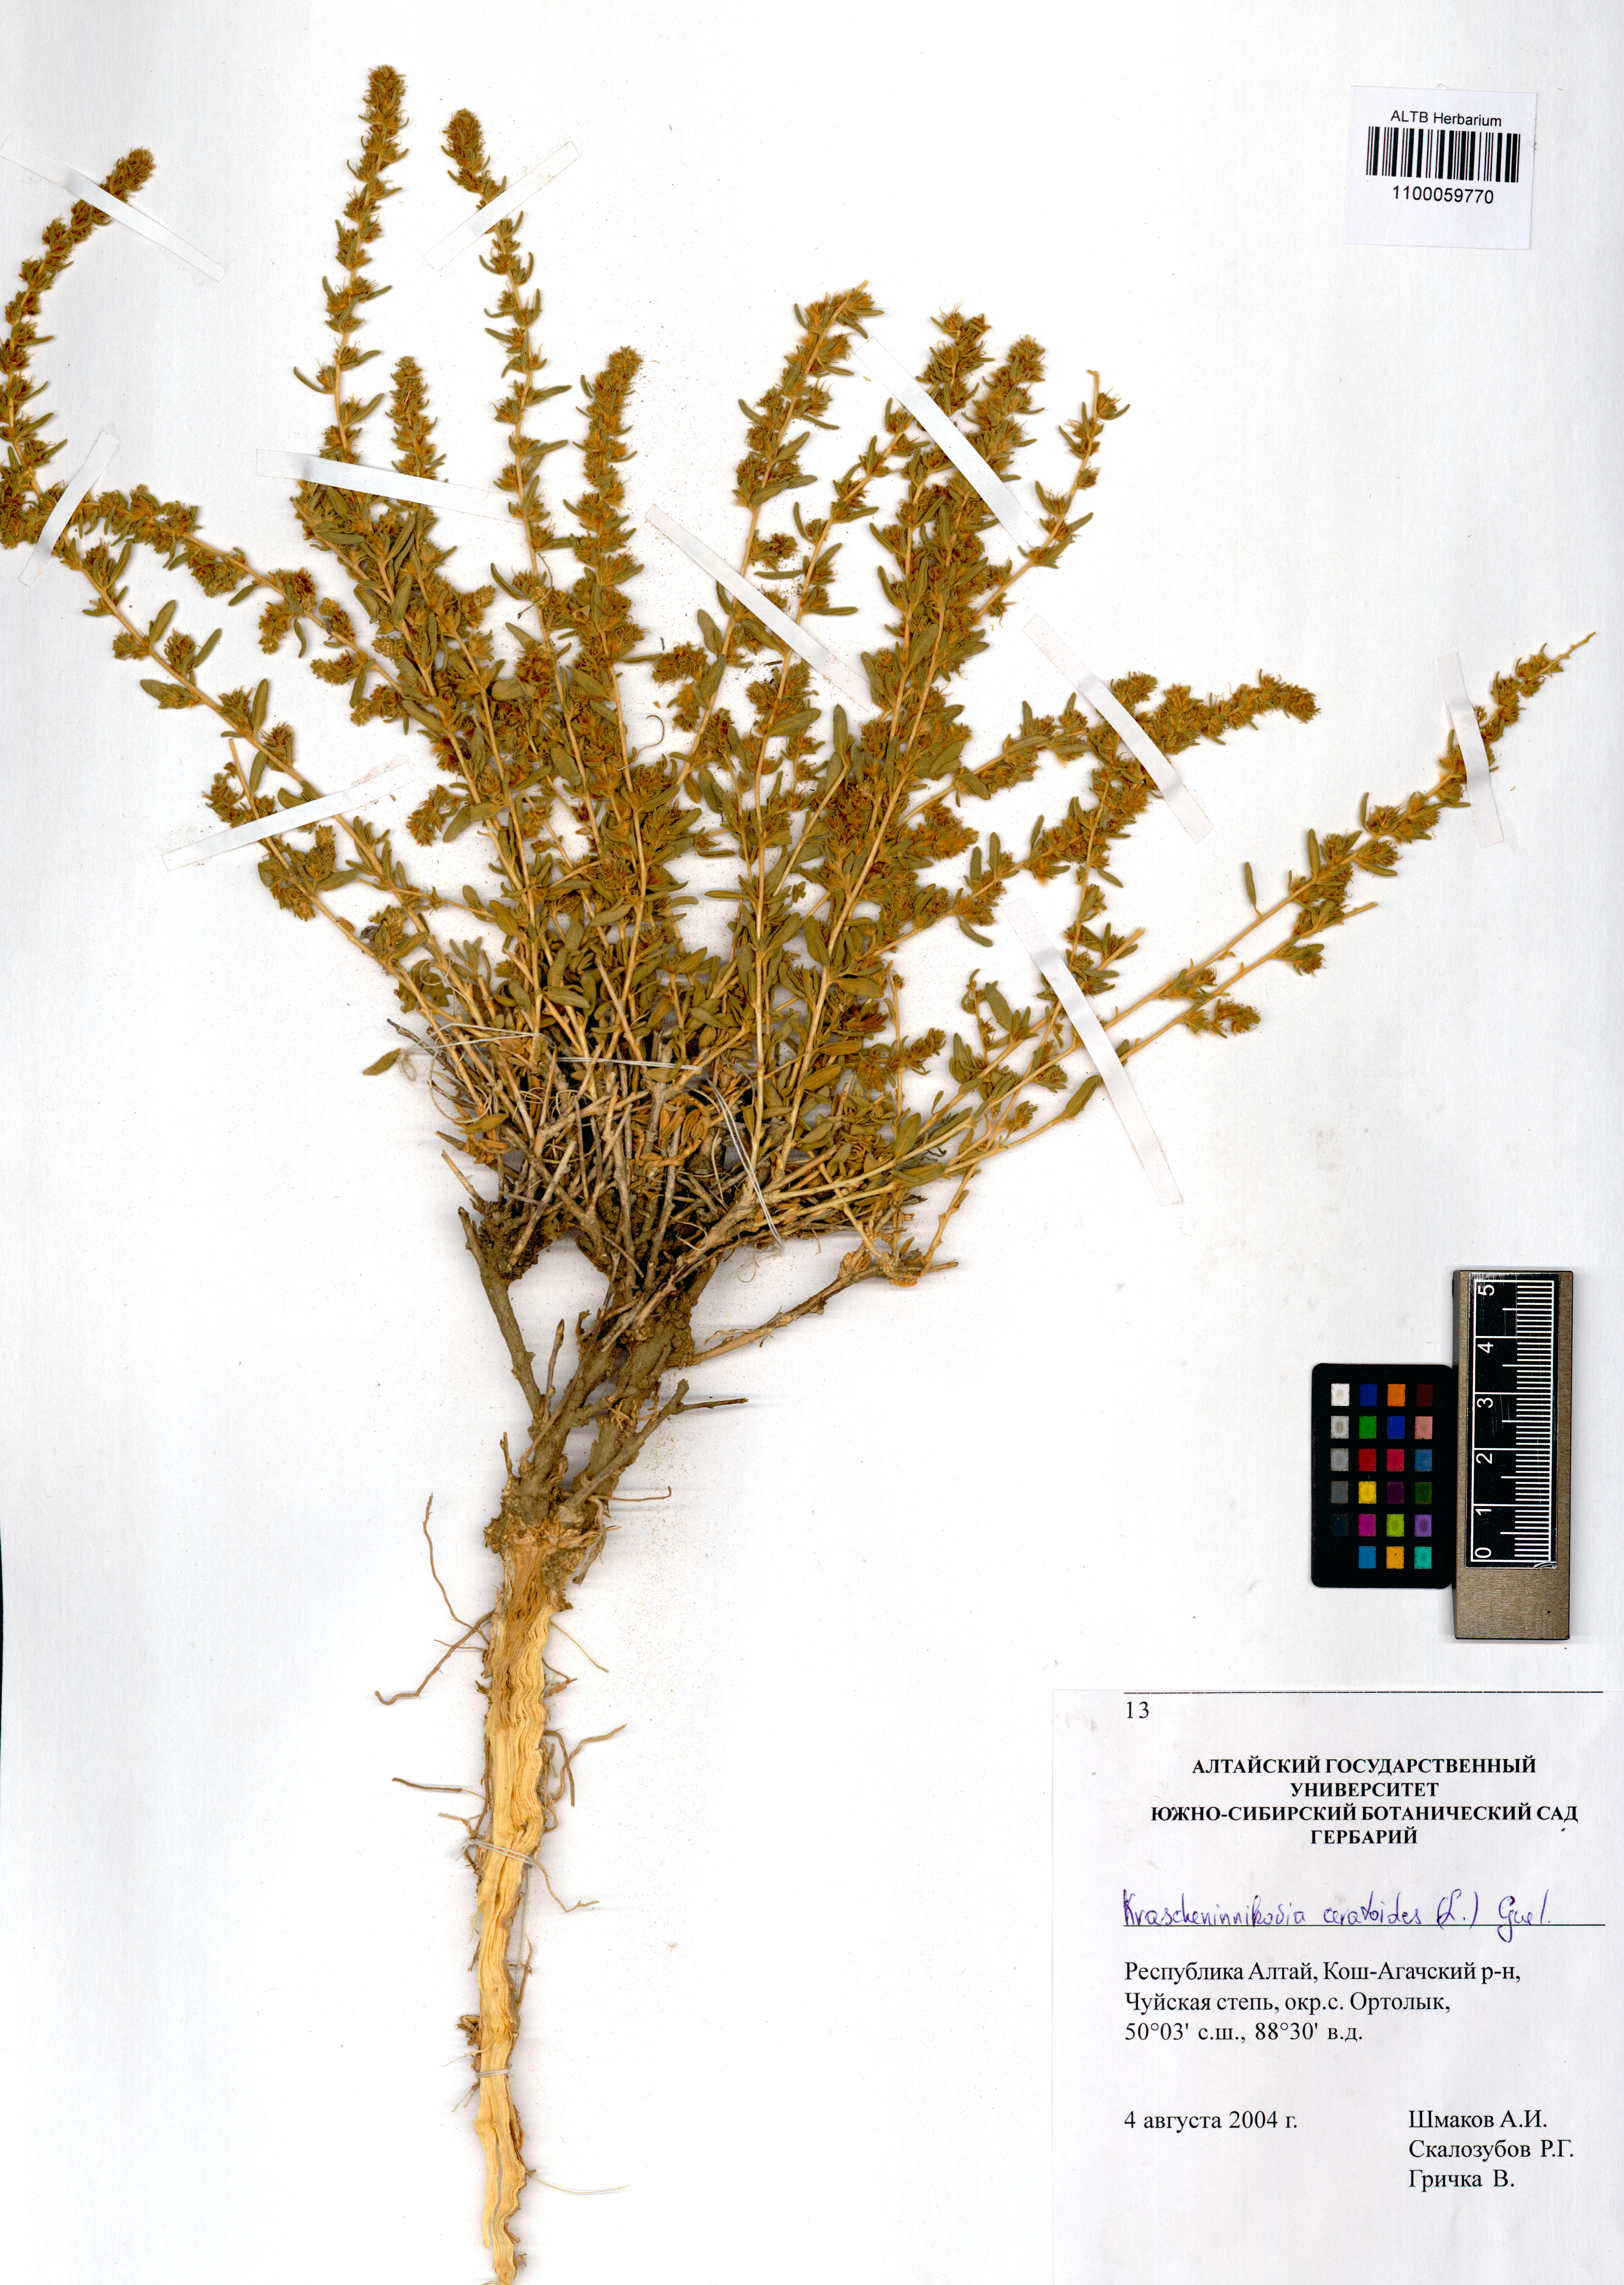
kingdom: Plantae
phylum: Tracheophyta
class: Magnoliopsida
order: Caryophyllales
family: Amaranthaceae
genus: Krascheninnikovia
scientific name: Krascheninnikovia ceratoides
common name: Pamirian winterfat
